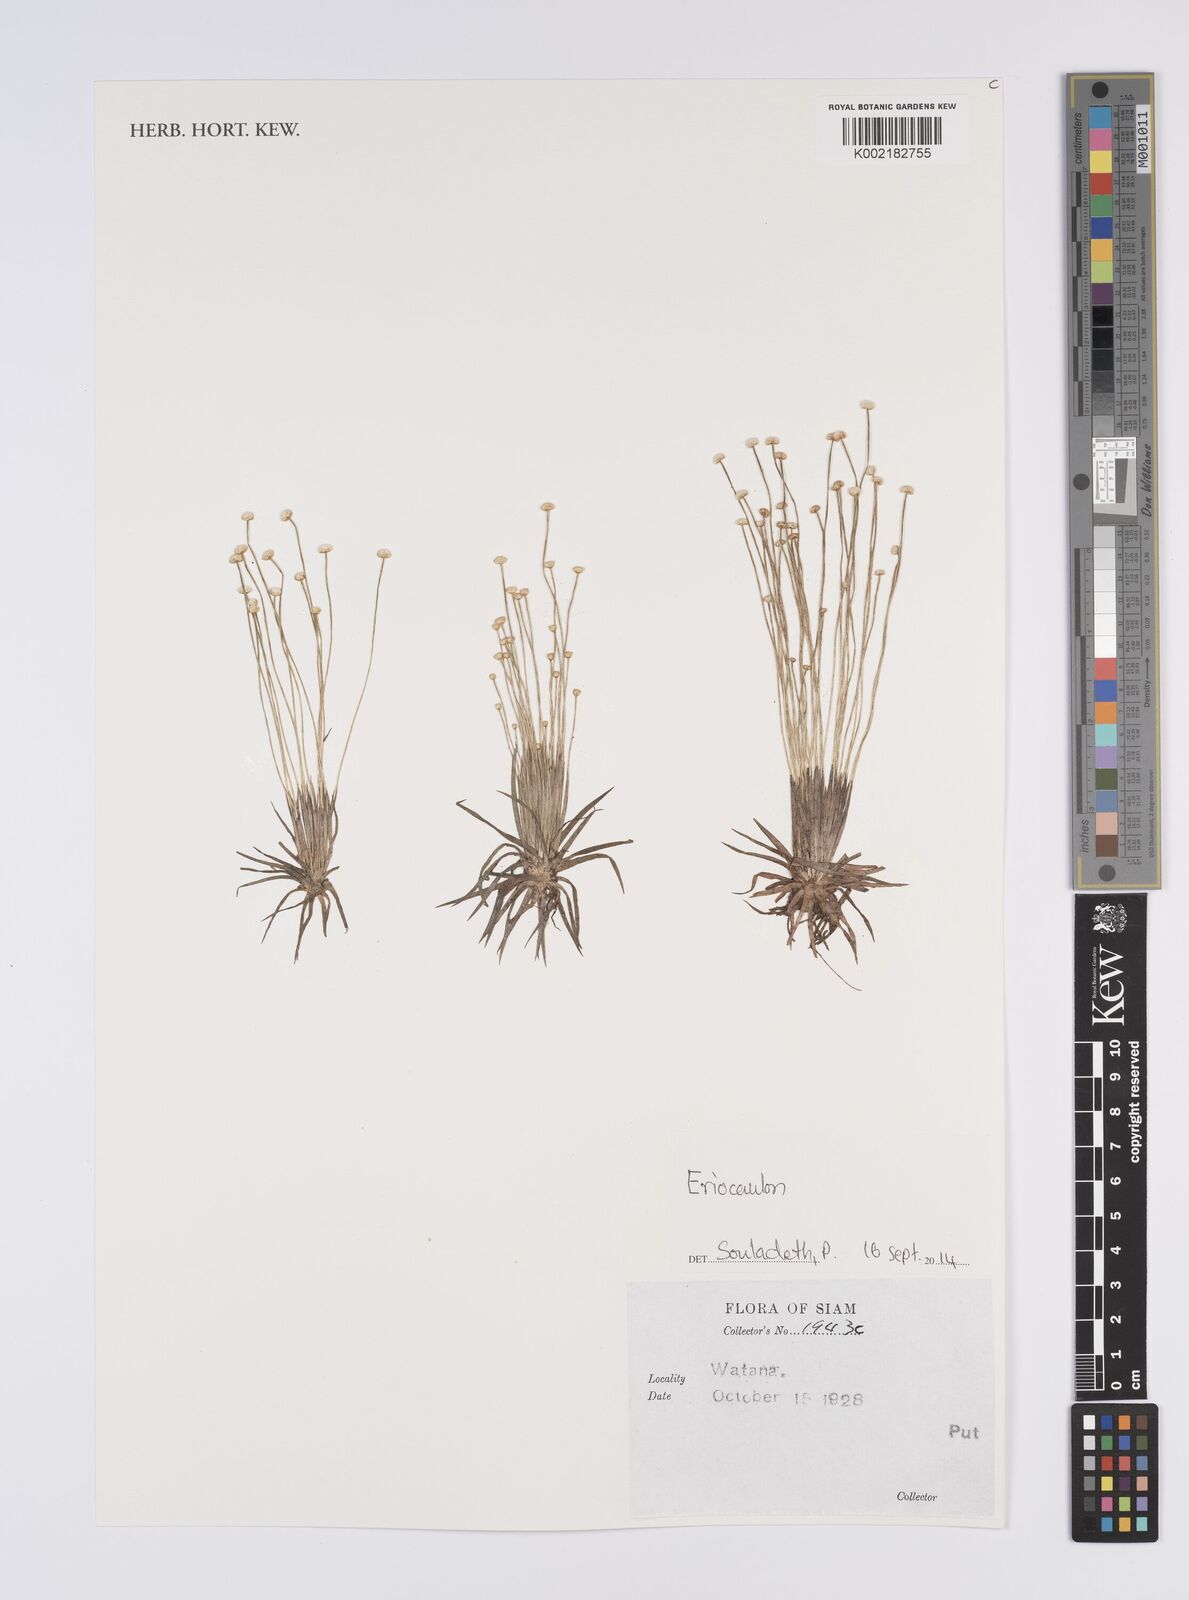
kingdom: Plantae
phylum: Tracheophyta
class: Liliopsida
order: Poales
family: Eriocaulaceae
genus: Eriocaulon
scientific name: Eriocaulon
